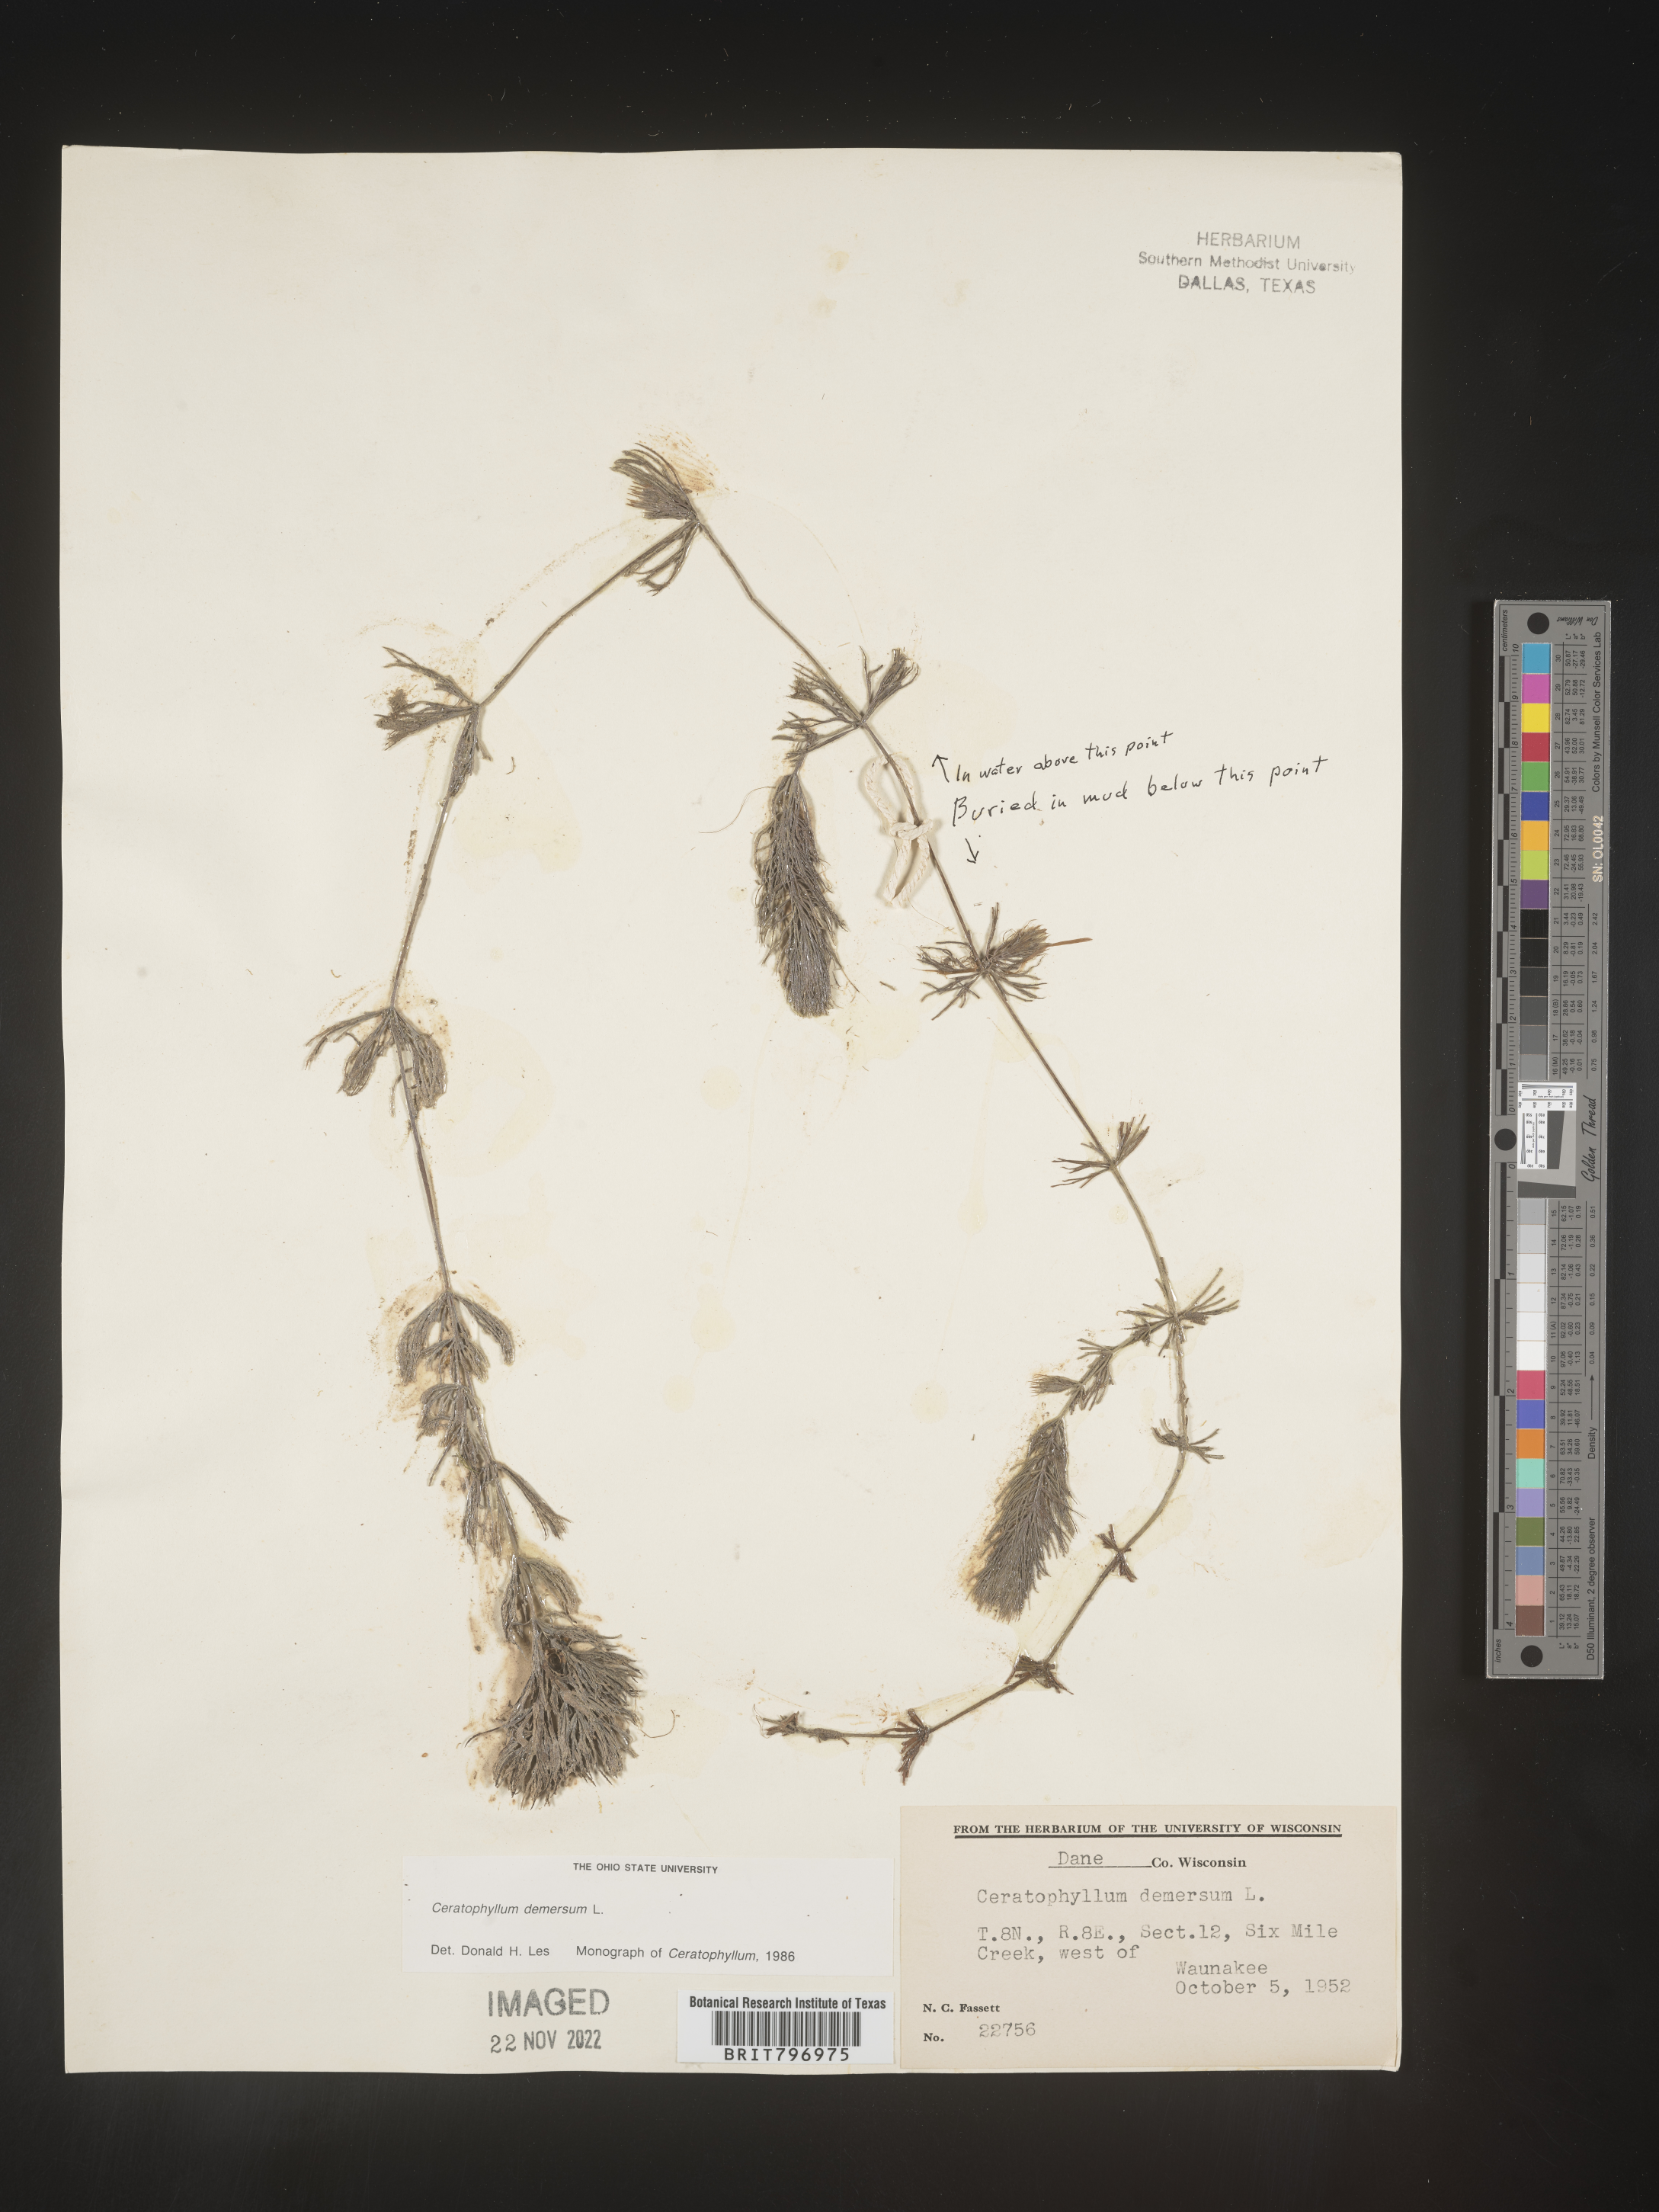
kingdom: Plantae
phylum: Tracheophyta
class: Magnoliopsida
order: Ceratophyllales
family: Ceratophyllaceae
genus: Ceratophyllum
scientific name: Ceratophyllum demersum
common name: Rigid hornwort
